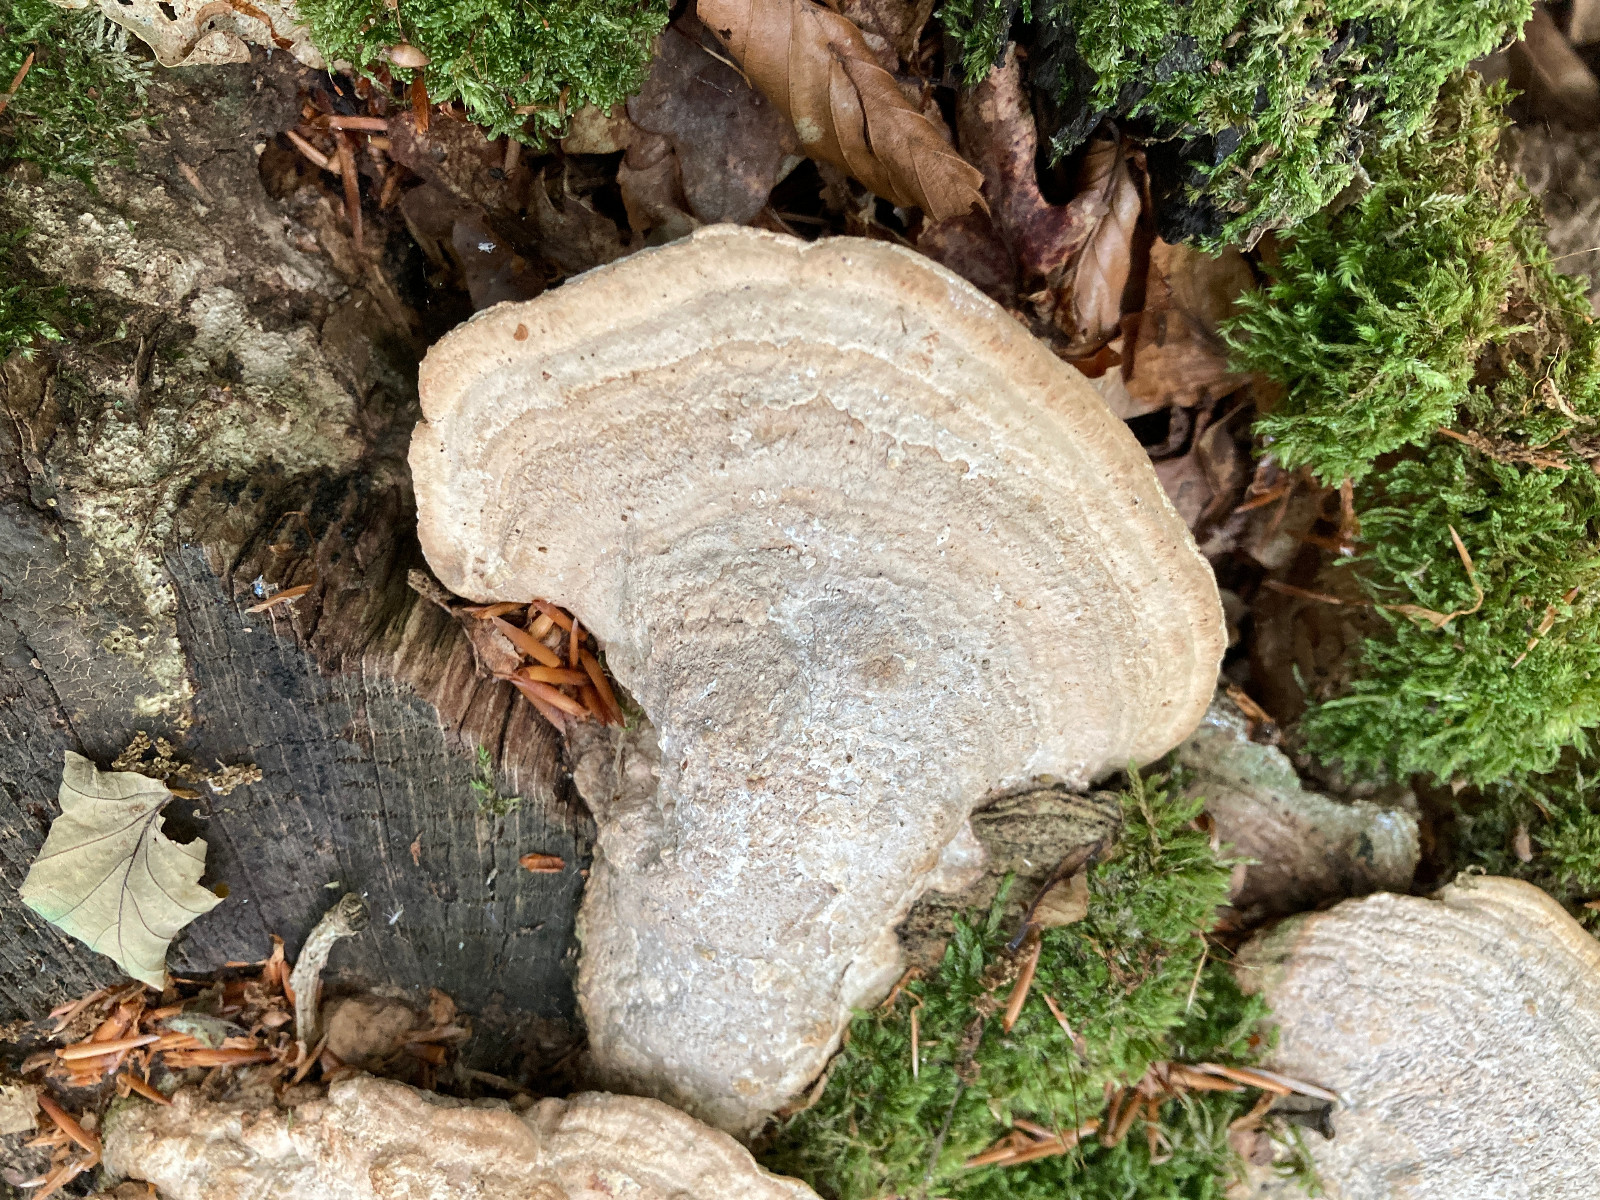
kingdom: Fungi
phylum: Basidiomycota
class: Agaricomycetes
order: Polyporales
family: Fomitopsidaceae
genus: Daedalea
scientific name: Daedalea quercina
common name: ege-labyrintsvamp
